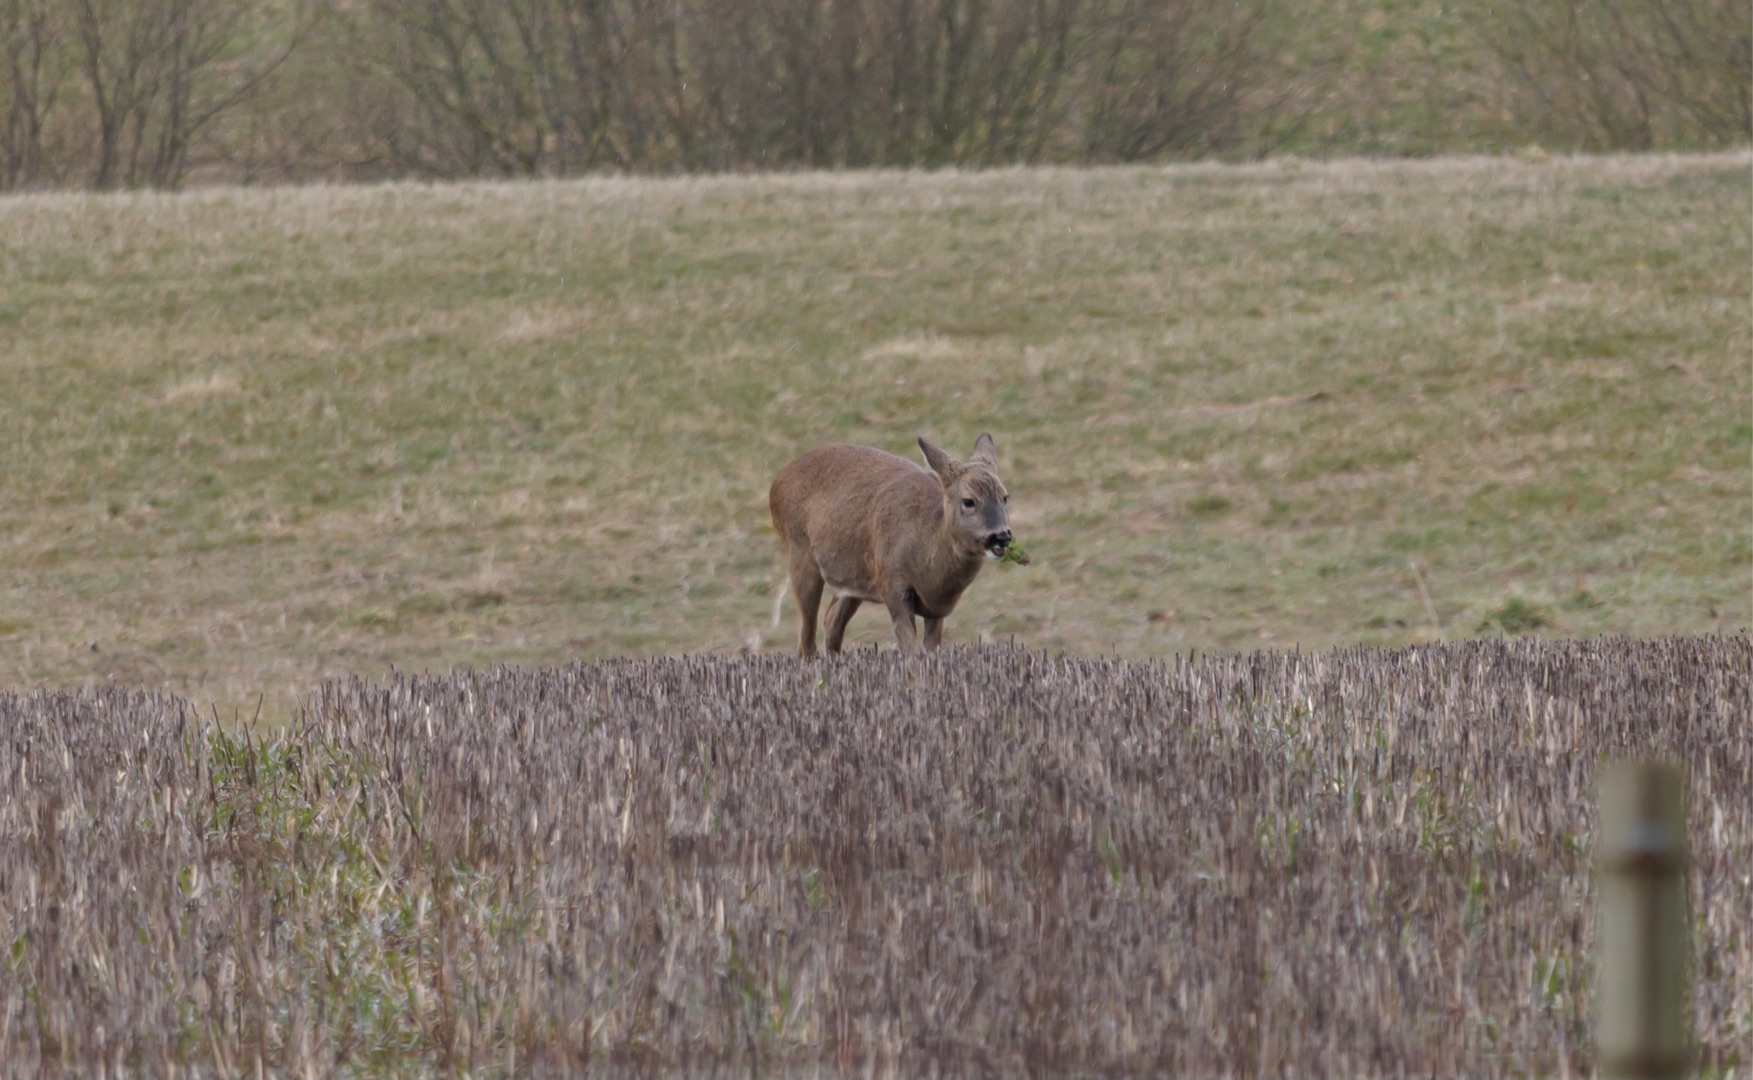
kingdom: Animalia
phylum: Chordata
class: Mammalia
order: Artiodactyla
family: Cervidae
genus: Capreolus
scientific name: Capreolus capreolus
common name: Rådyr
